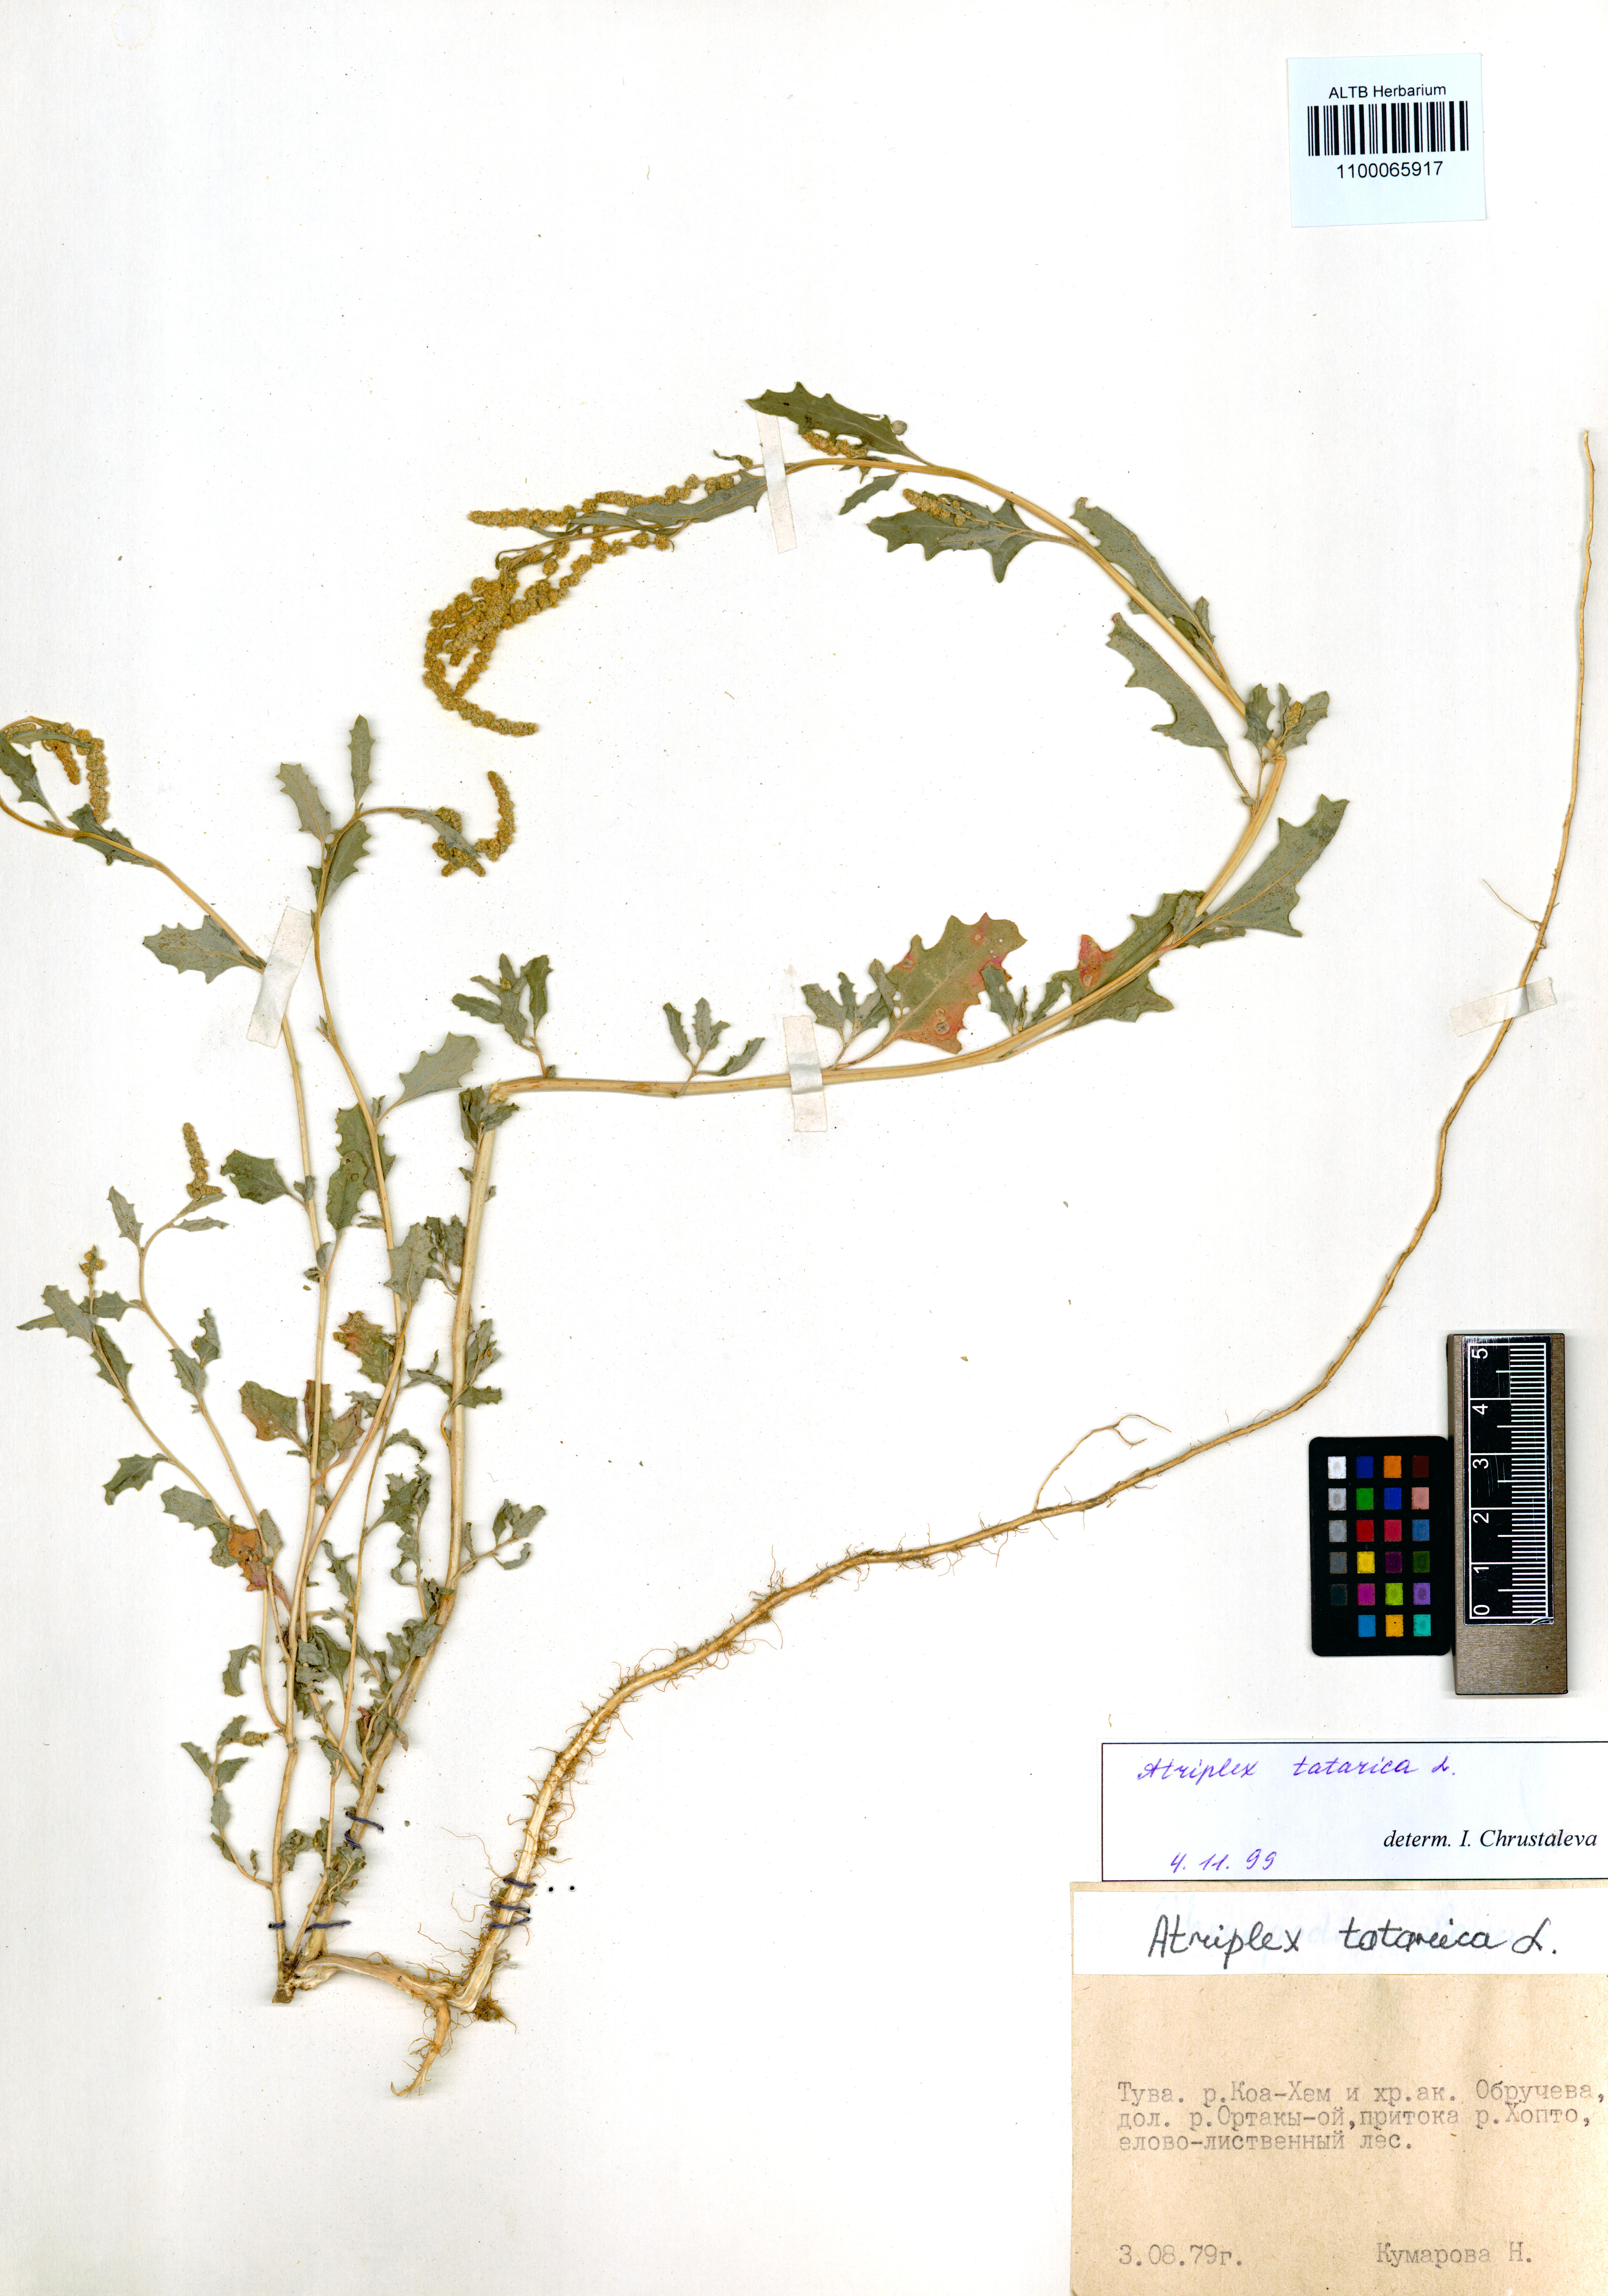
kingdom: Plantae
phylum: Tracheophyta
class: Magnoliopsida
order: Caryophyllales
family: Amaranthaceae
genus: Atriplex
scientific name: Atriplex tatarica
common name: Tatarian orache
